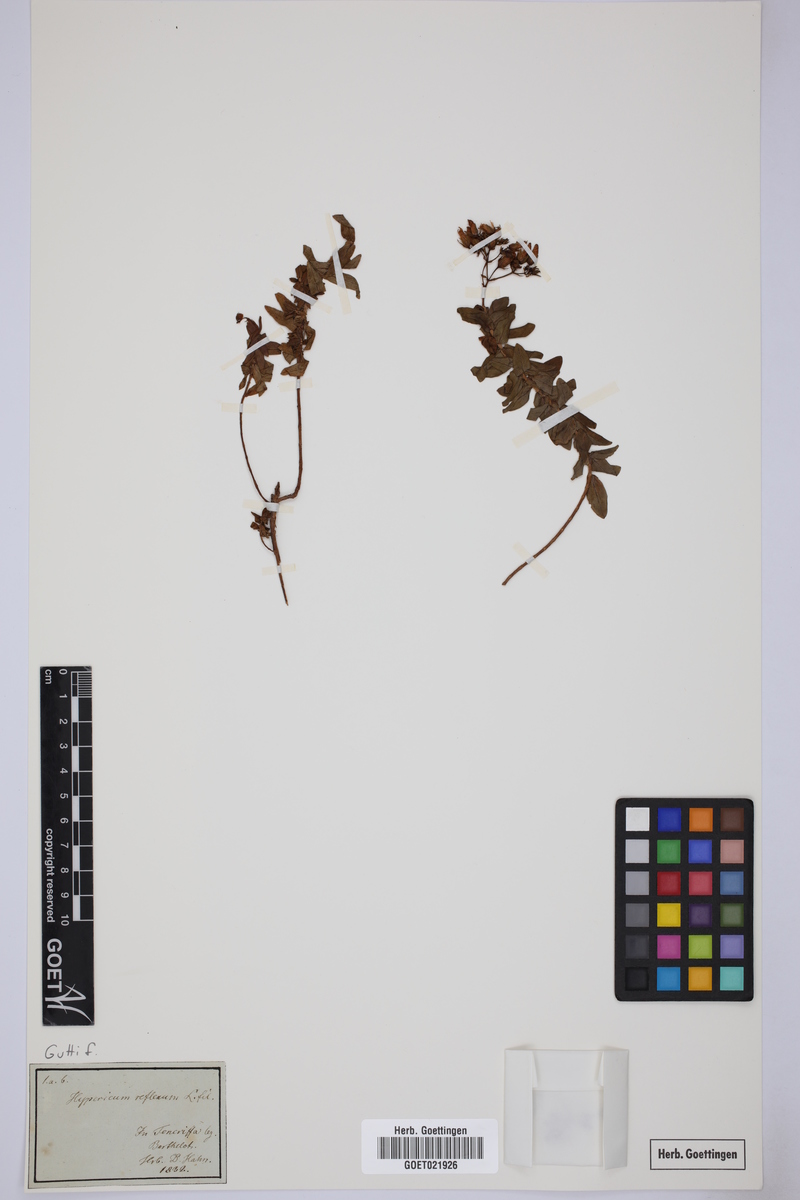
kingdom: Plantae
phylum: Tracheophyta
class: Magnoliopsida
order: Malpighiales
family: Hypericaceae
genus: Hypericum
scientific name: Hypericum reflexum
